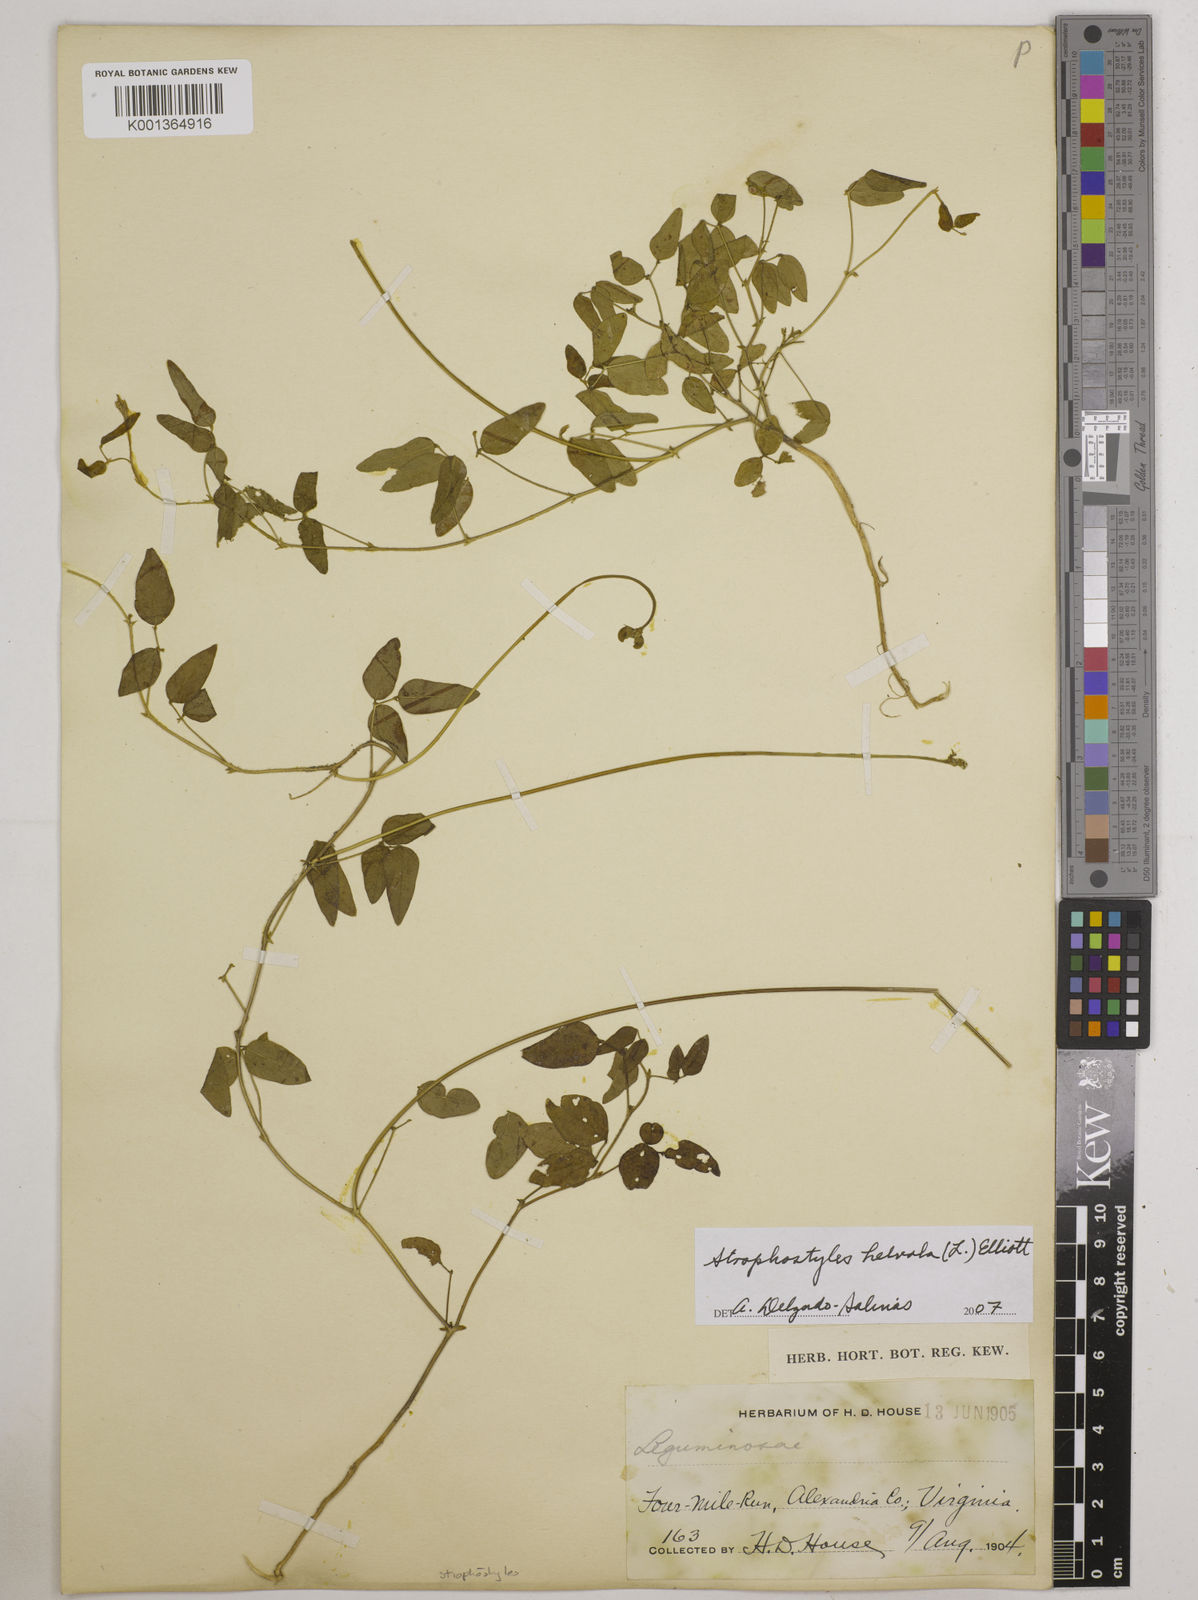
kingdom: Plantae
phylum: Tracheophyta
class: Magnoliopsida
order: Fabales
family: Fabaceae
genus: Strophostyles
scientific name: Strophostyles
